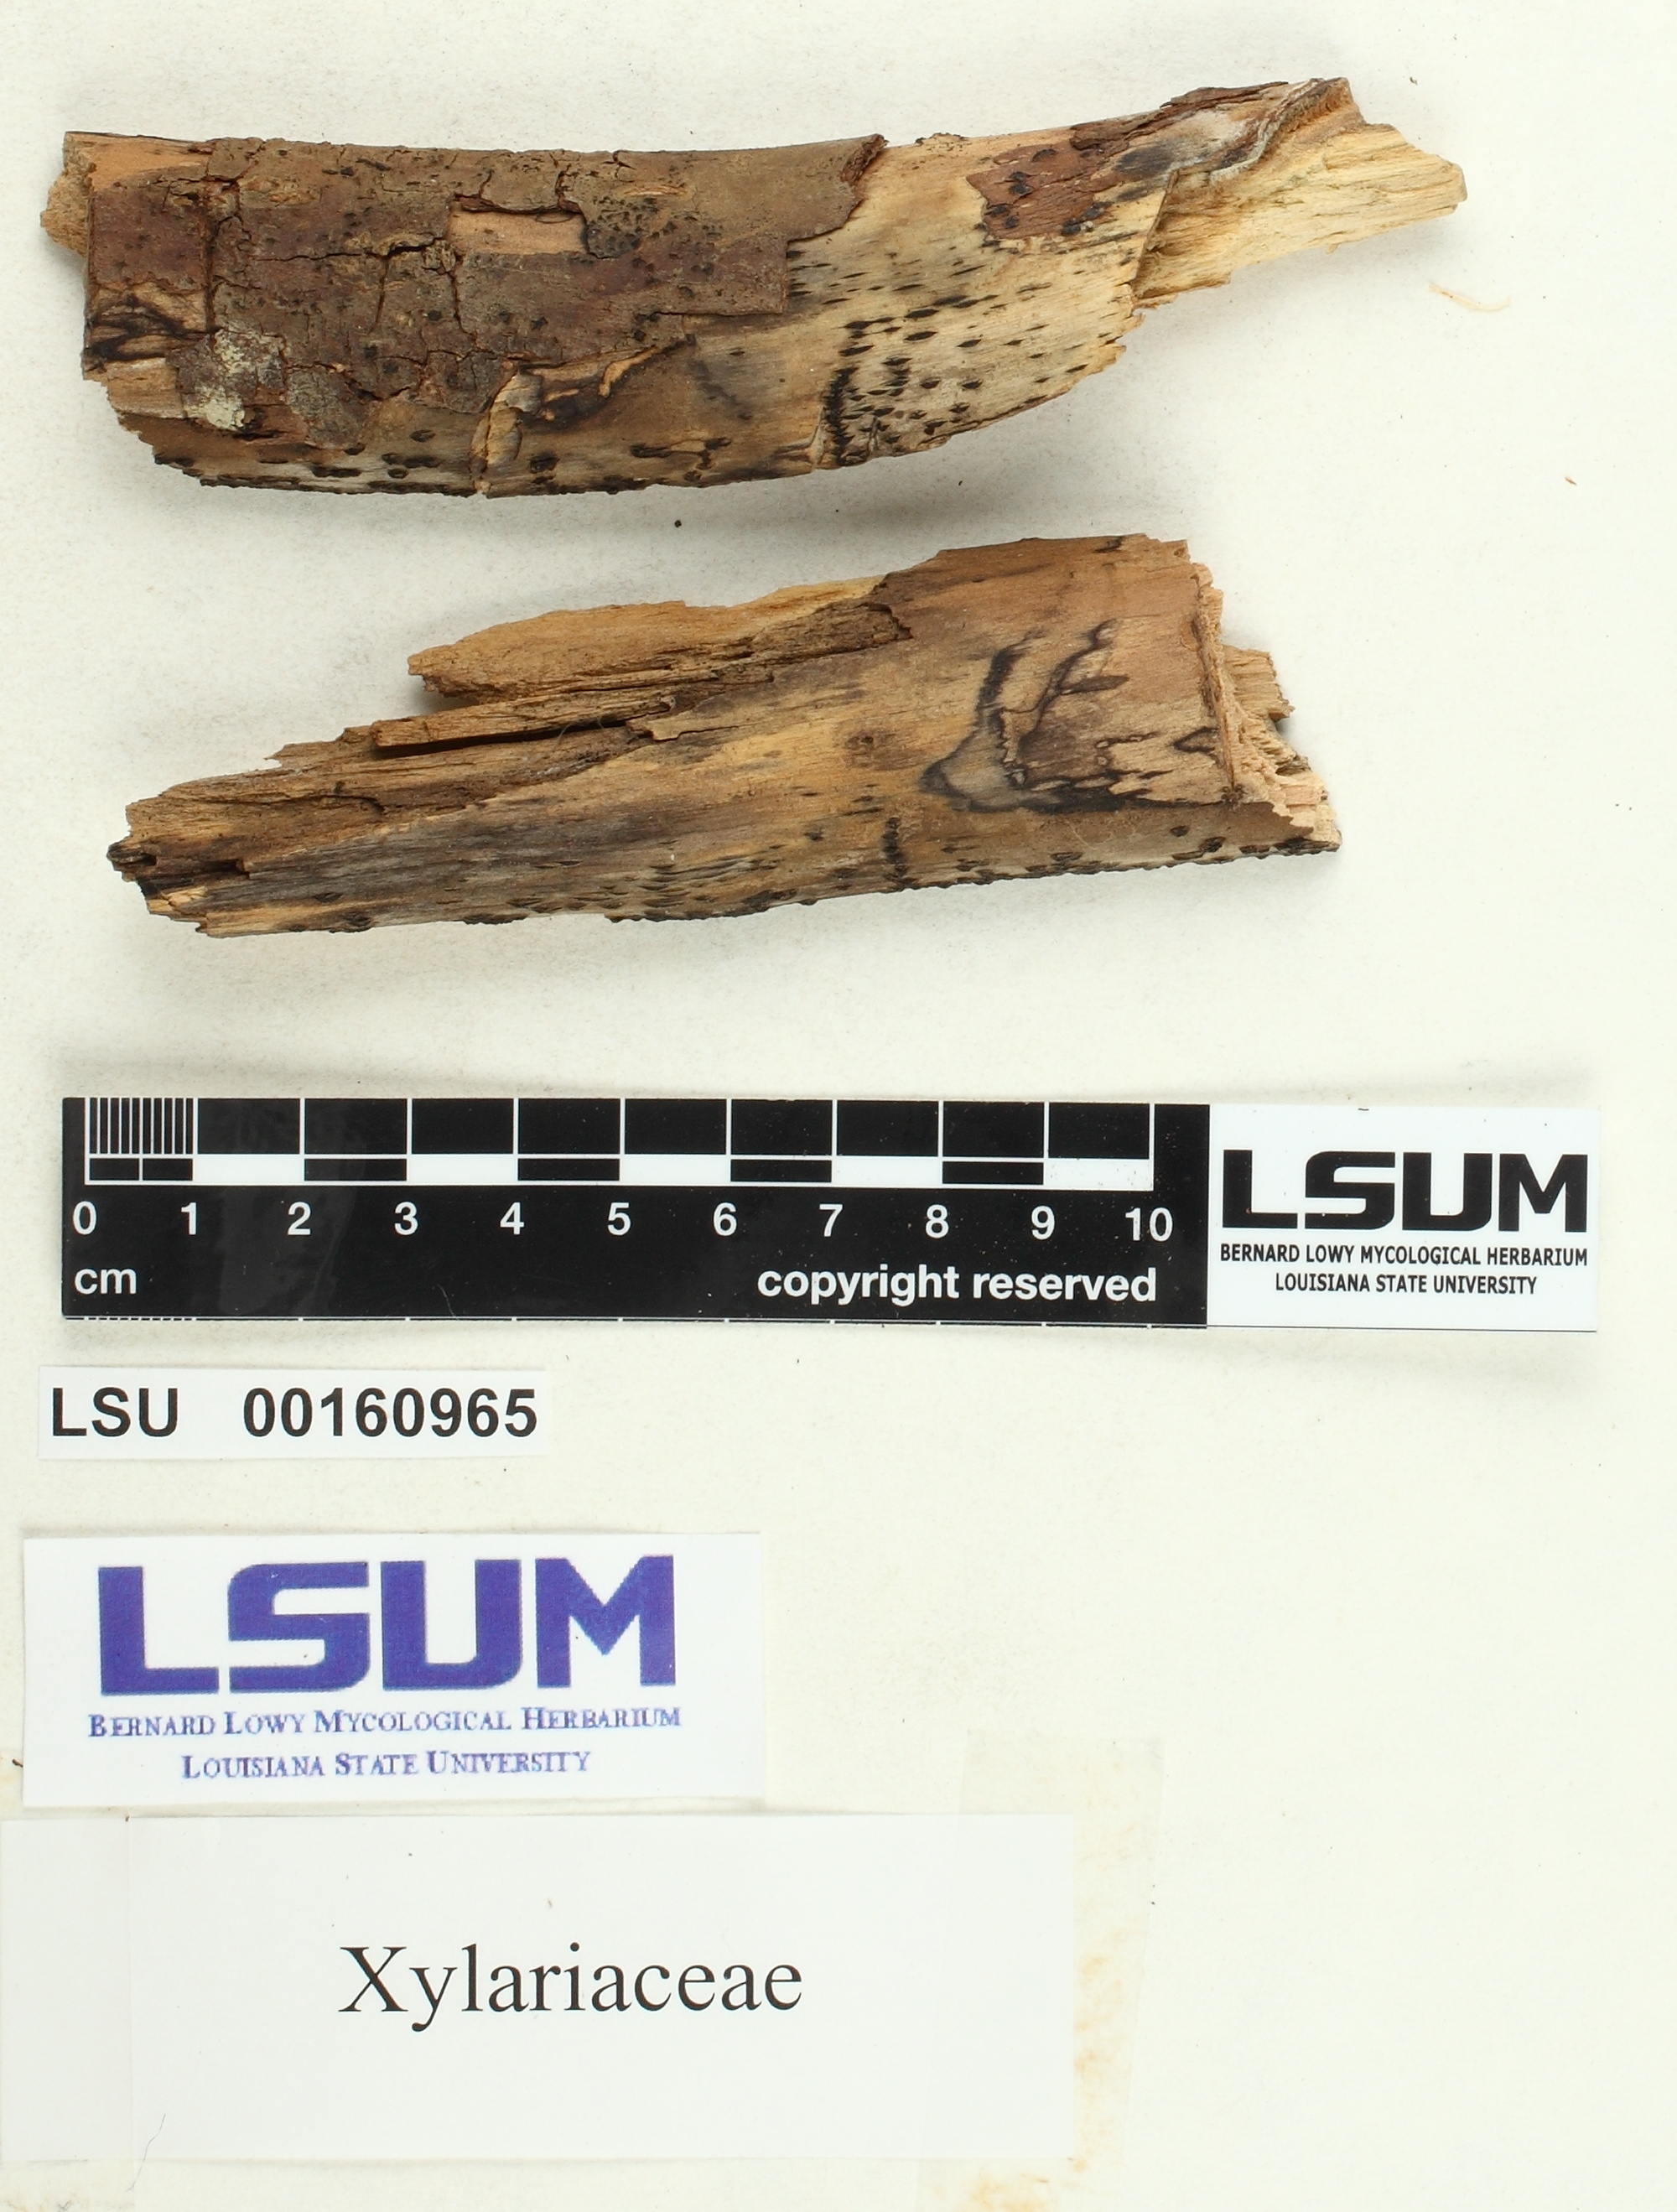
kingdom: Fungi
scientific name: Fungi
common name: Fungi
